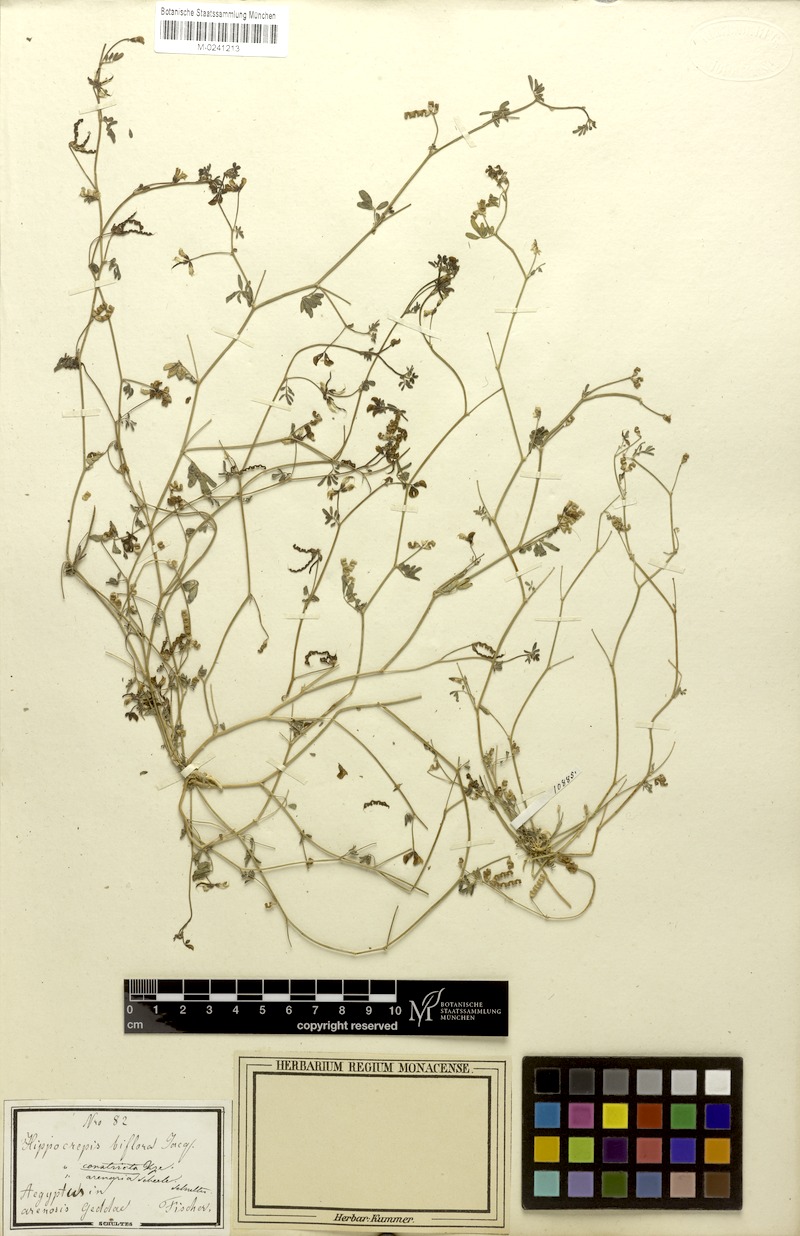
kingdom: Plantae
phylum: Tracheophyta
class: Magnoliopsida
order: Fabales
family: Fabaceae
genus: Hippocrepis
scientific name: Hippocrepis constricta
